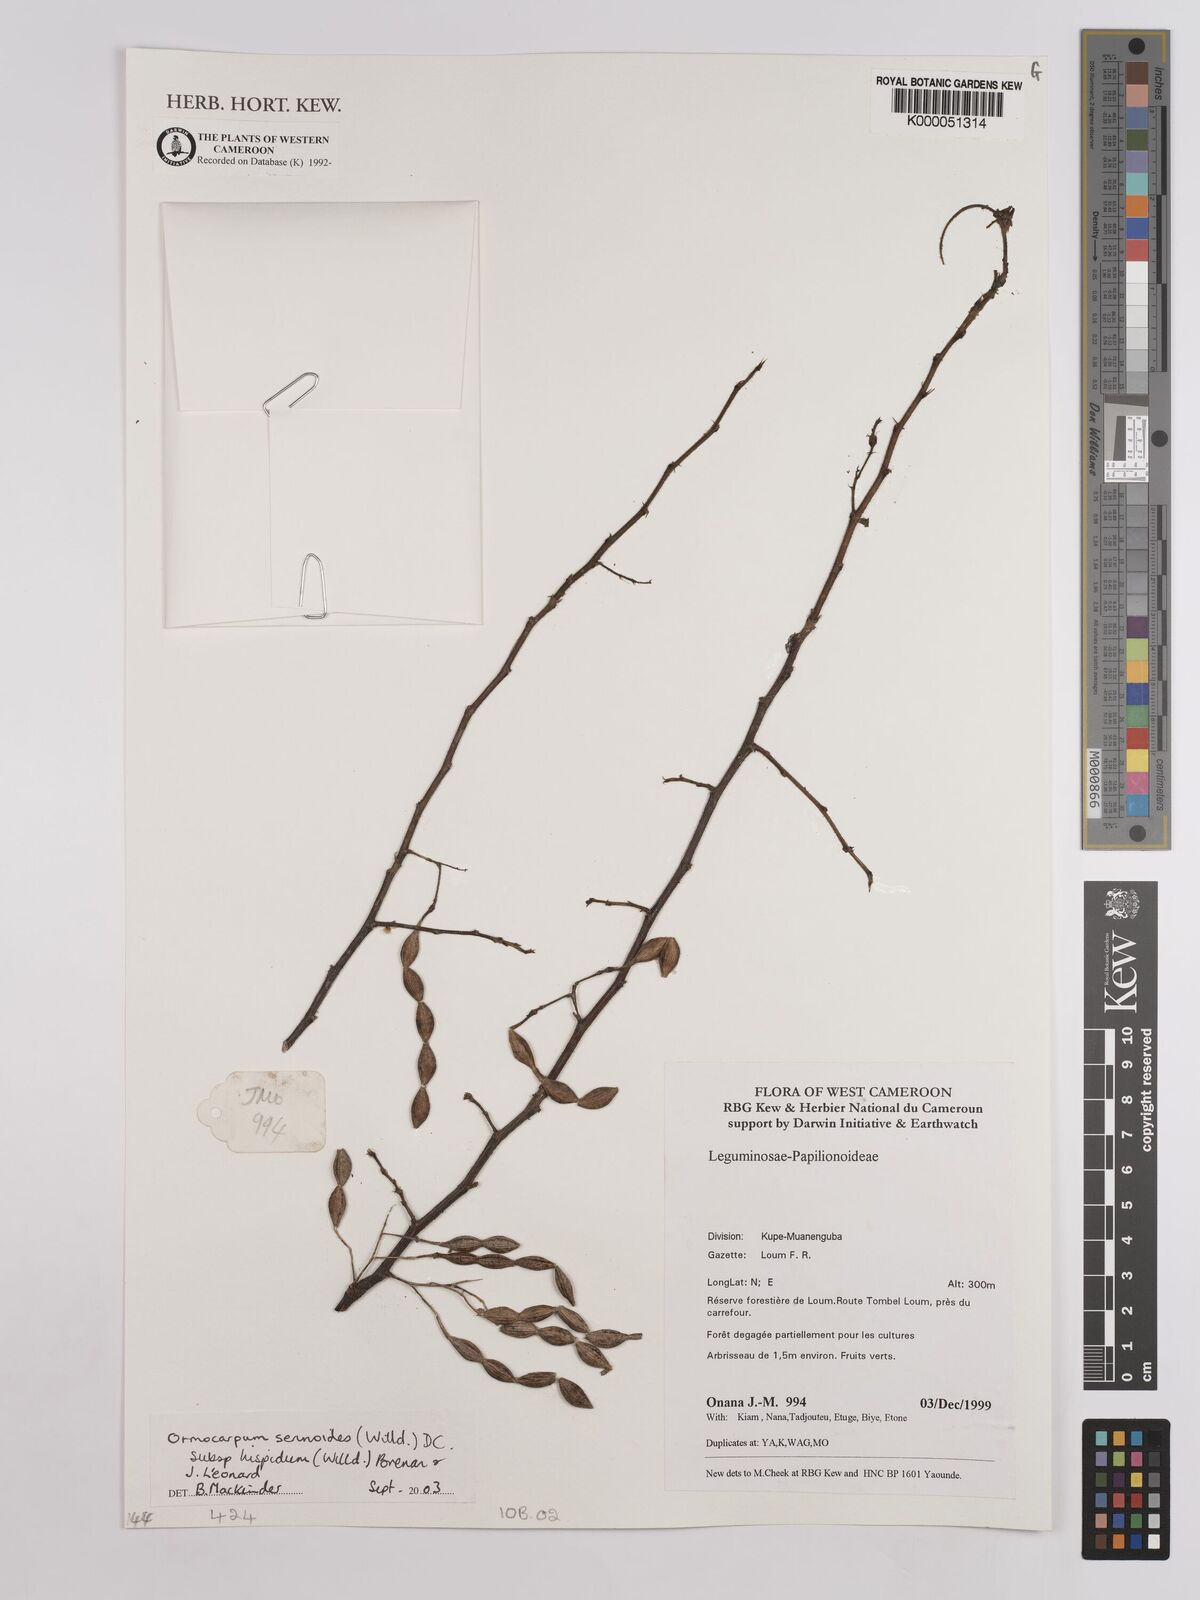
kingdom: Plantae
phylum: Tracheophyta
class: Magnoliopsida
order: Fabales
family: Fabaceae
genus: Ormocarpum
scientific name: Ormocarpum sennoides
